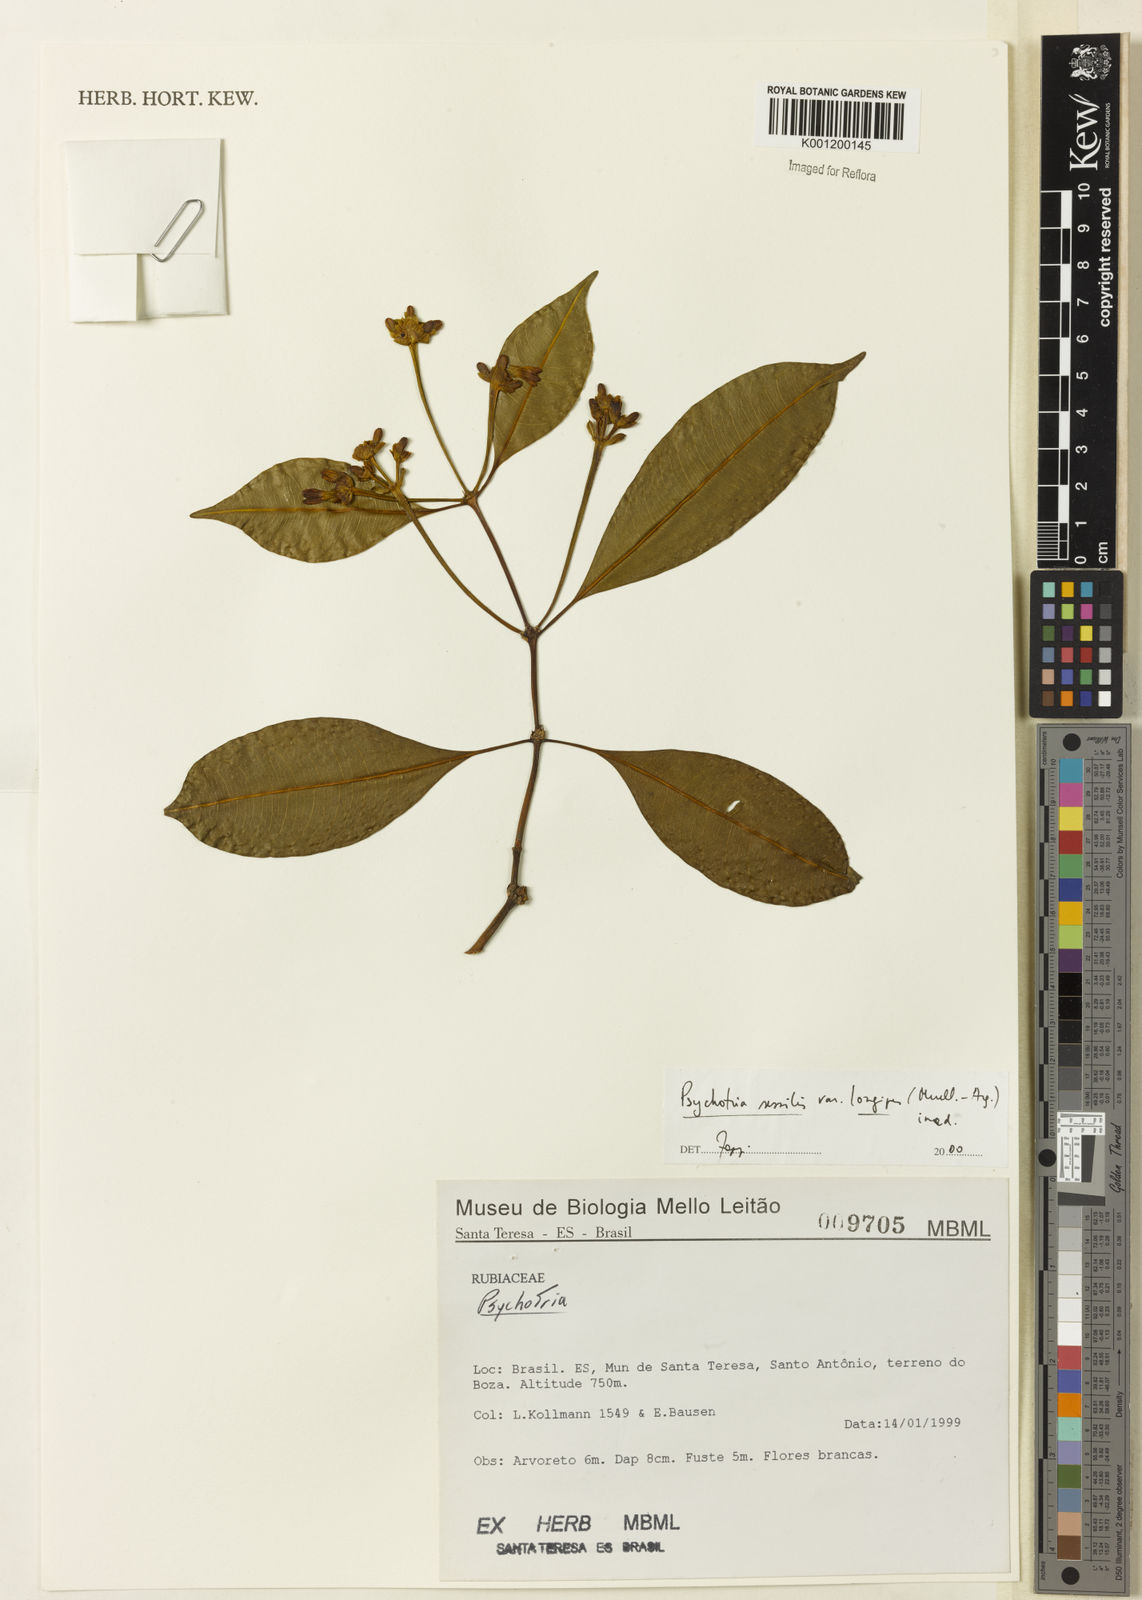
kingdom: Plantae
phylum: Tracheophyta
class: Magnoliopsida
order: Gentianales
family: Rubiaceae
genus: Rudgea
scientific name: Rudgea sessilis
